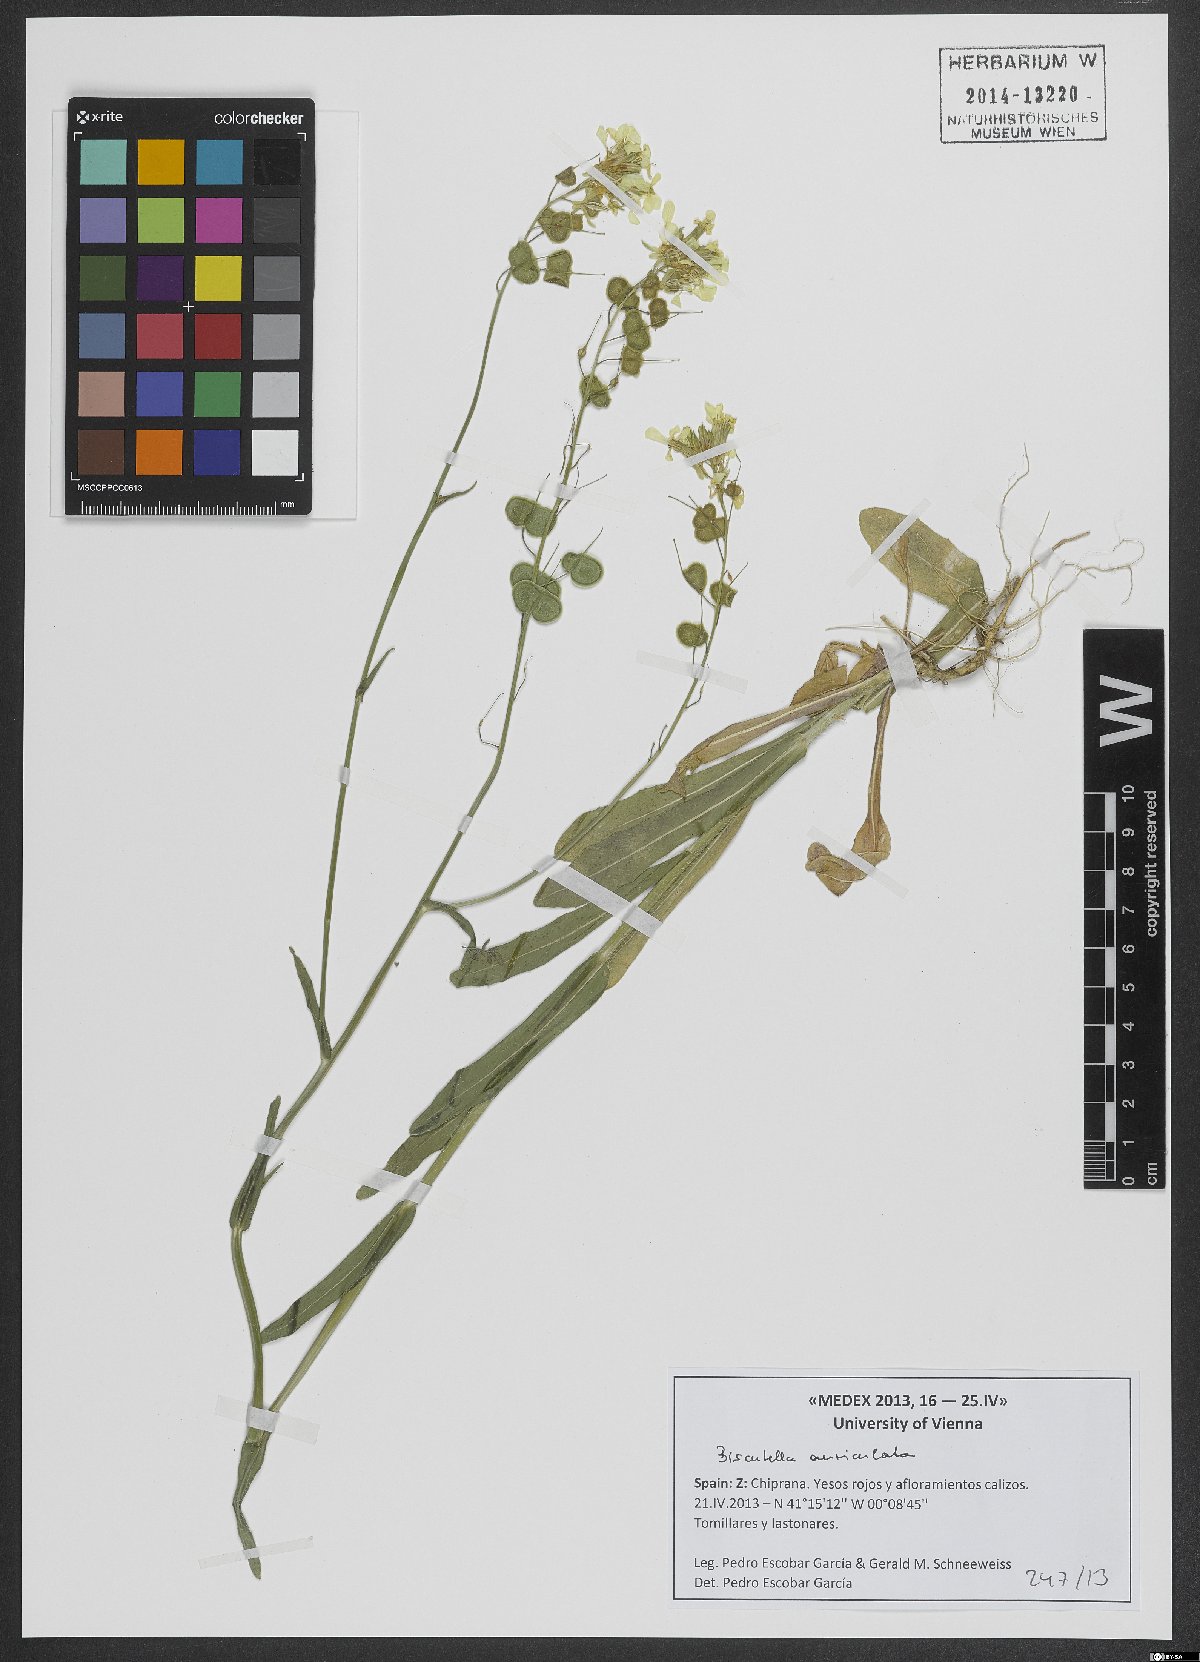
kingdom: Plantae
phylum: Tracheophyta
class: Magnoliopsida
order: Brassicales
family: Brassicaceae
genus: Biscutella
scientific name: Biscutella auriculata
